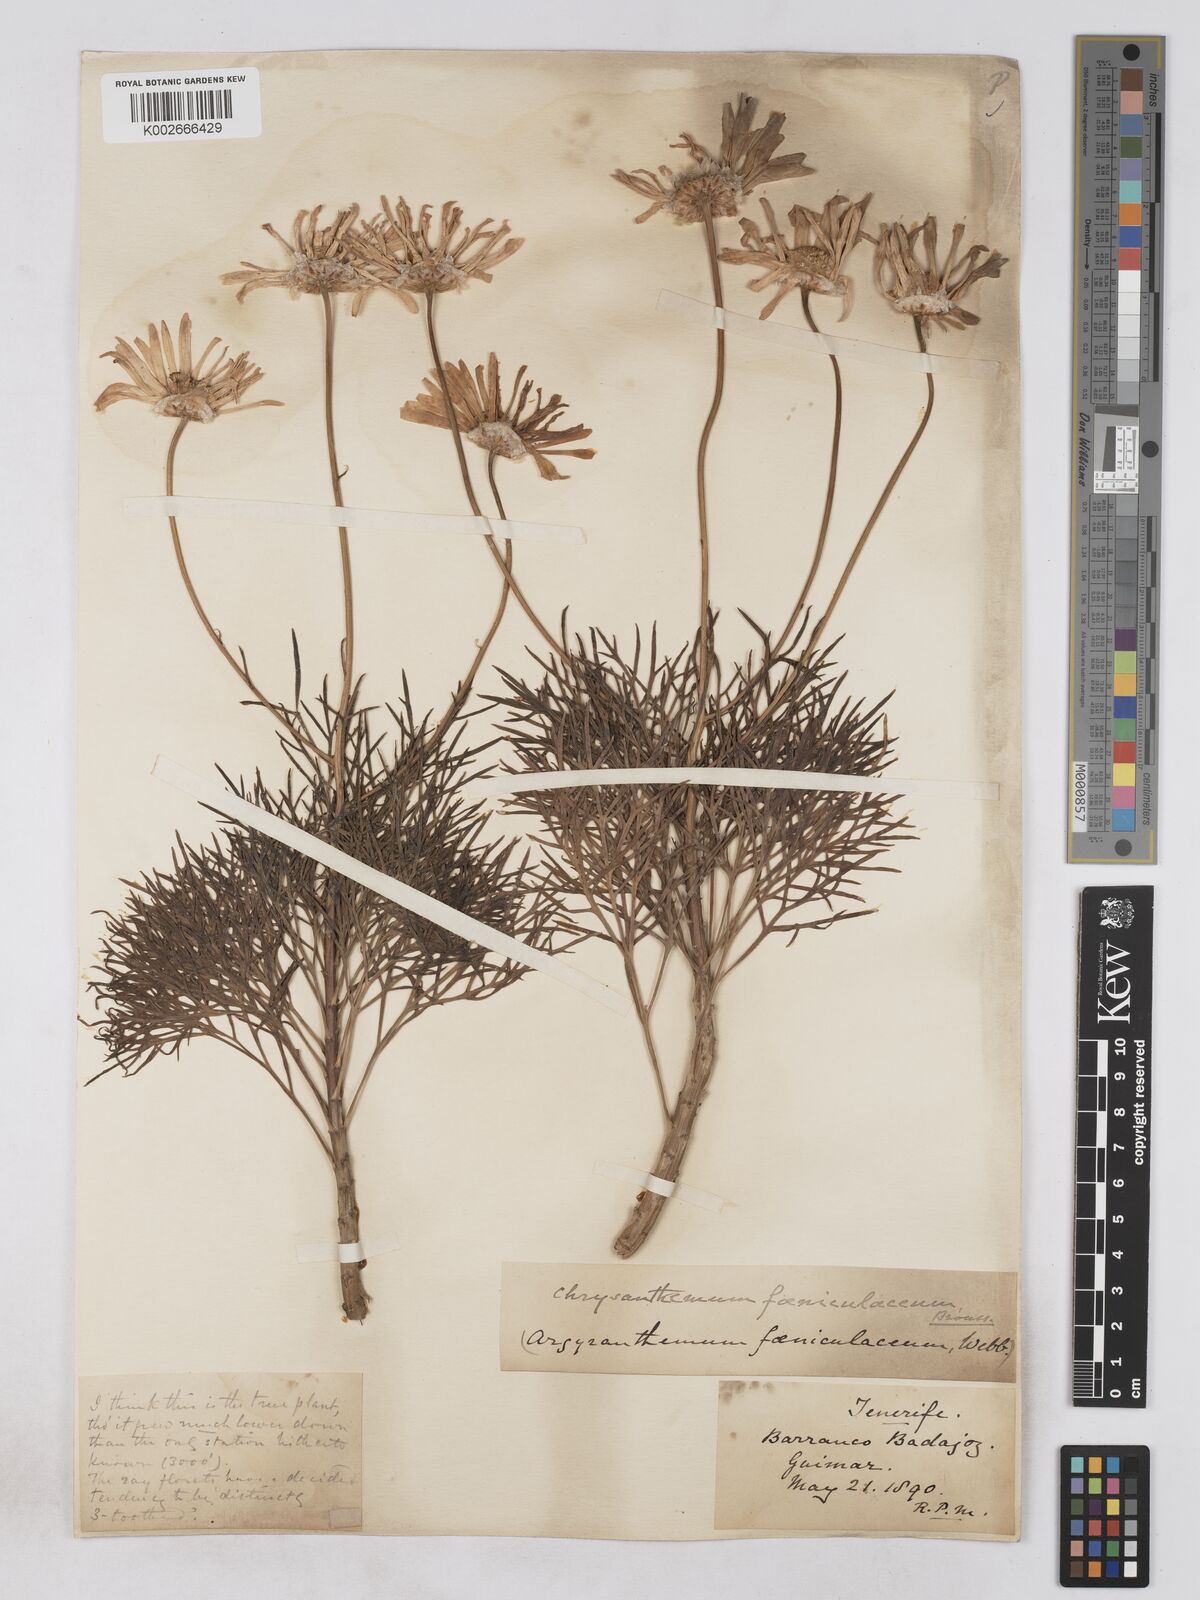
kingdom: Plantae
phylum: Tracheophyta
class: Magnoliopsida
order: Asterales
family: Asteraceae
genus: Argyranthemum
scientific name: Argyranthemum foeniculaceum
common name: Canary island marguerite
